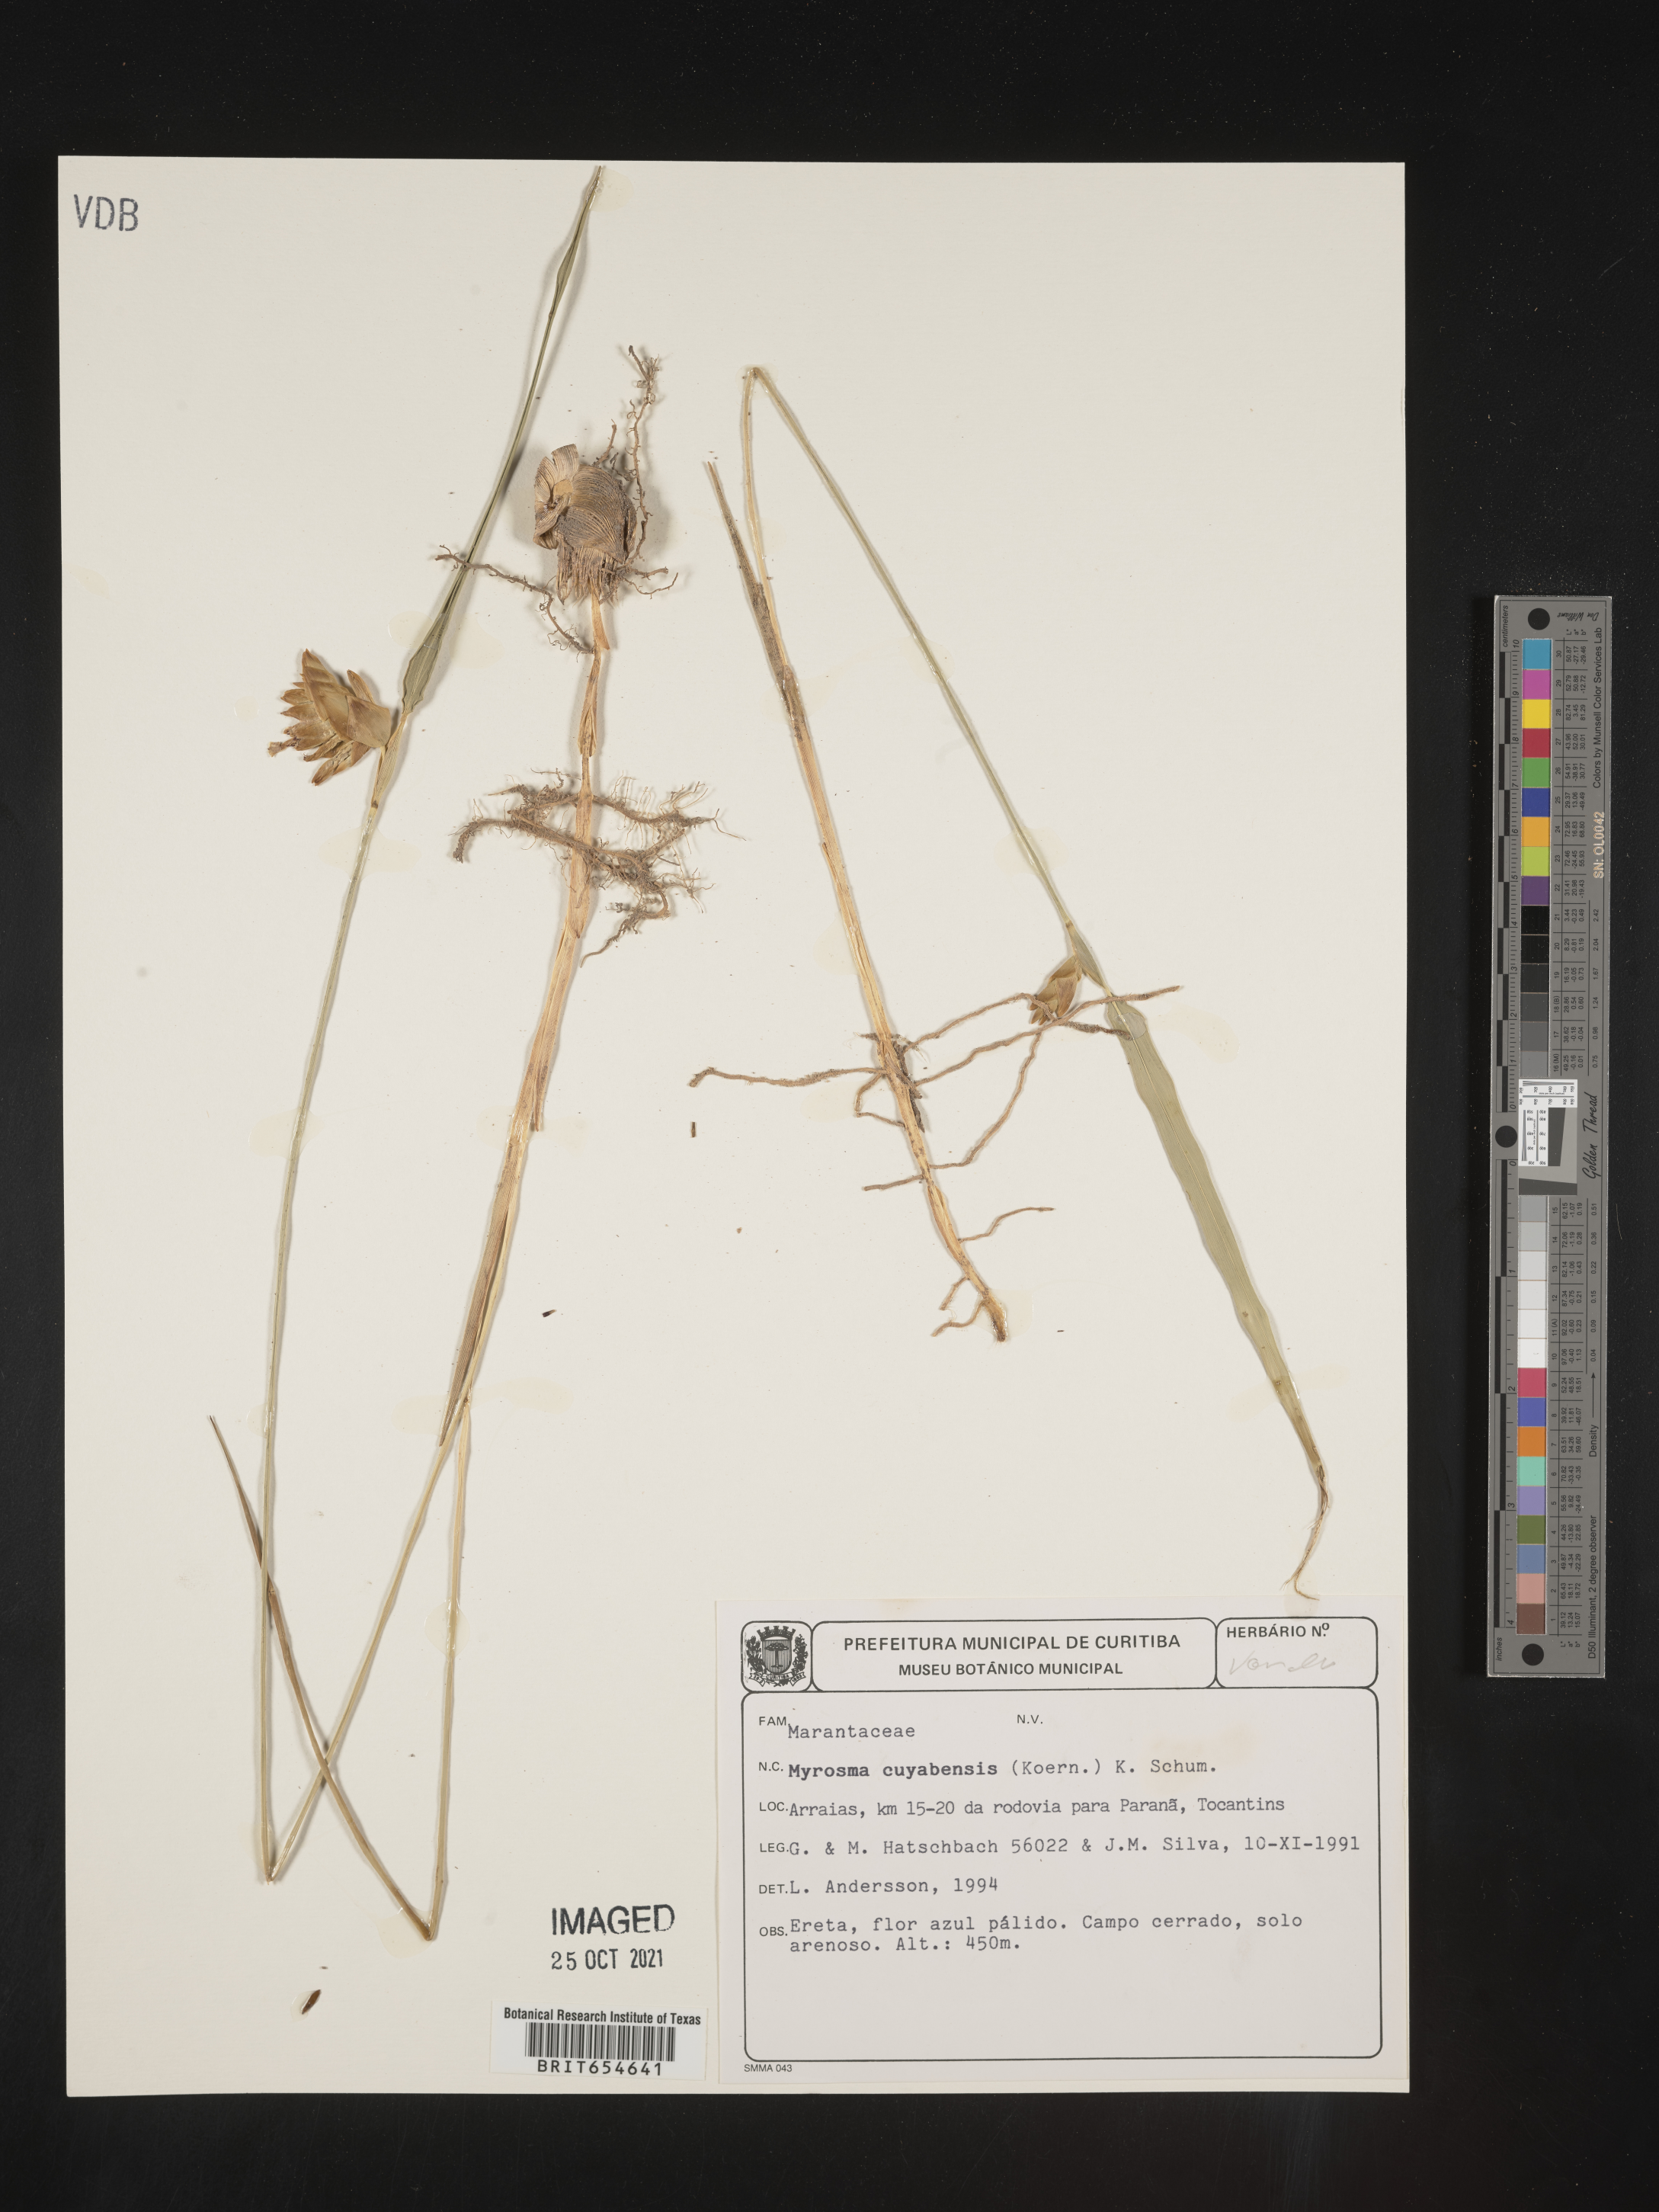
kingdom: Plantae
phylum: Tracheophyta
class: Liliopsida
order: Zingiberales
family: Marantaceae
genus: Myrosma
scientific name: Myrosma
